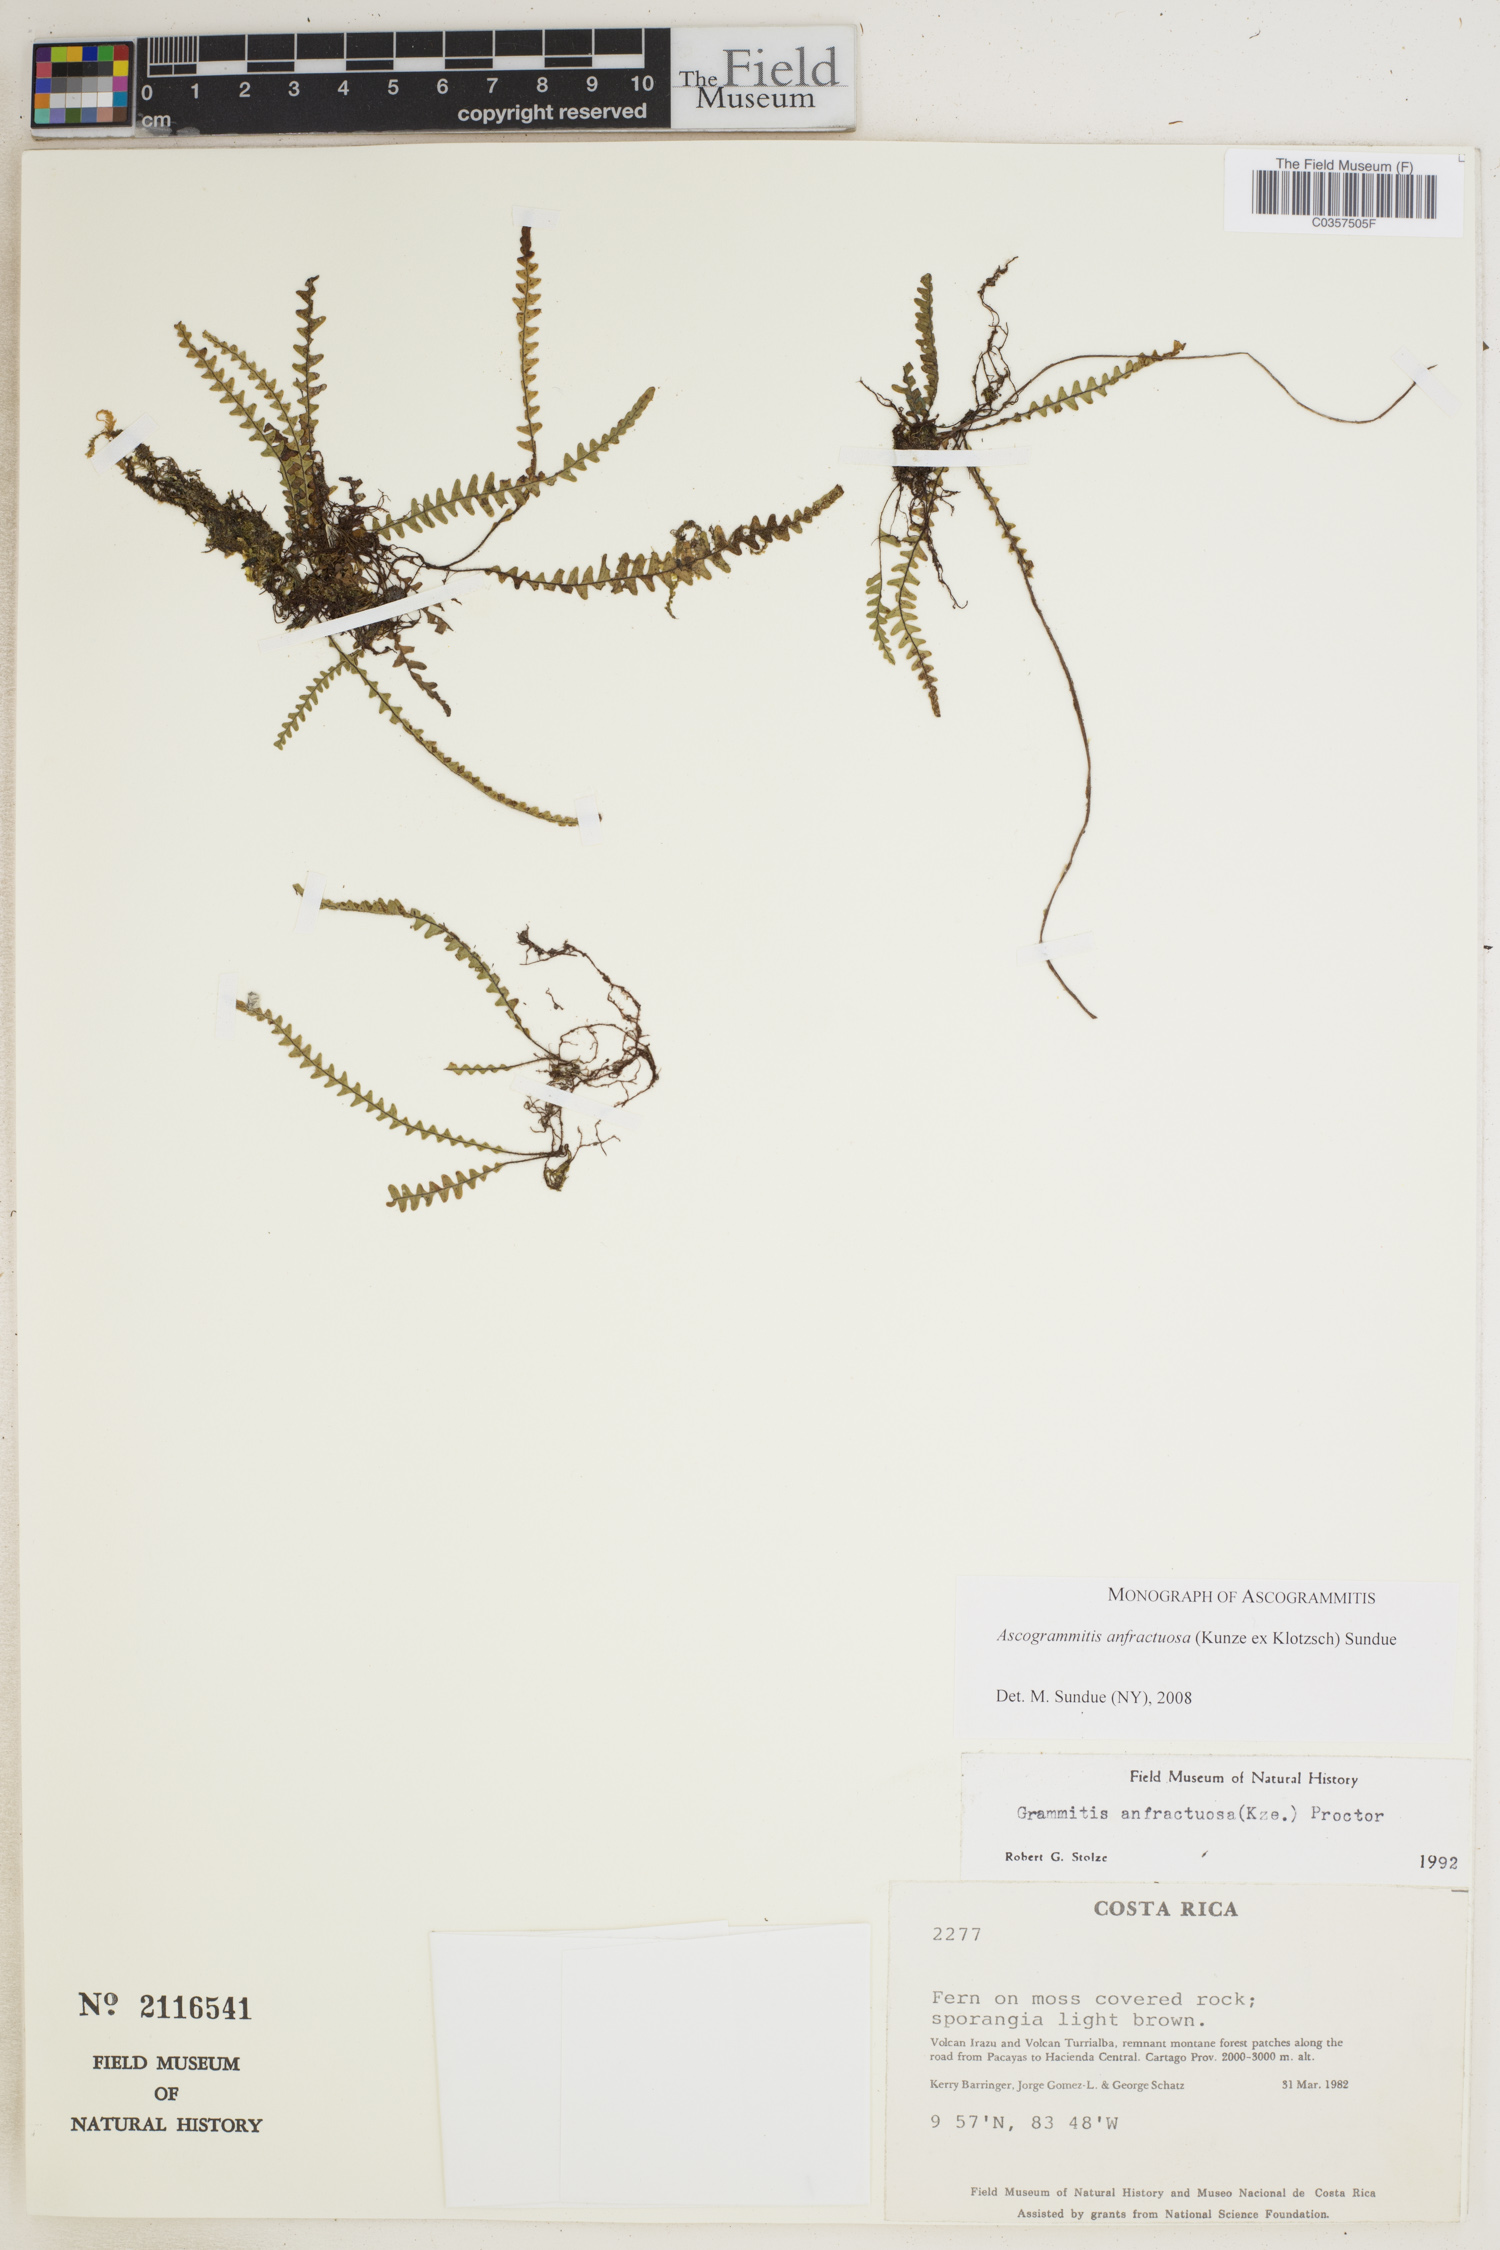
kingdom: Plantae
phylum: Tracheophyta
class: Polypodiopsida
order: Polypodiales
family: Polypodiaceae
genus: Ascogrammitis
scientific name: Ascogrammitis anfractuosa
